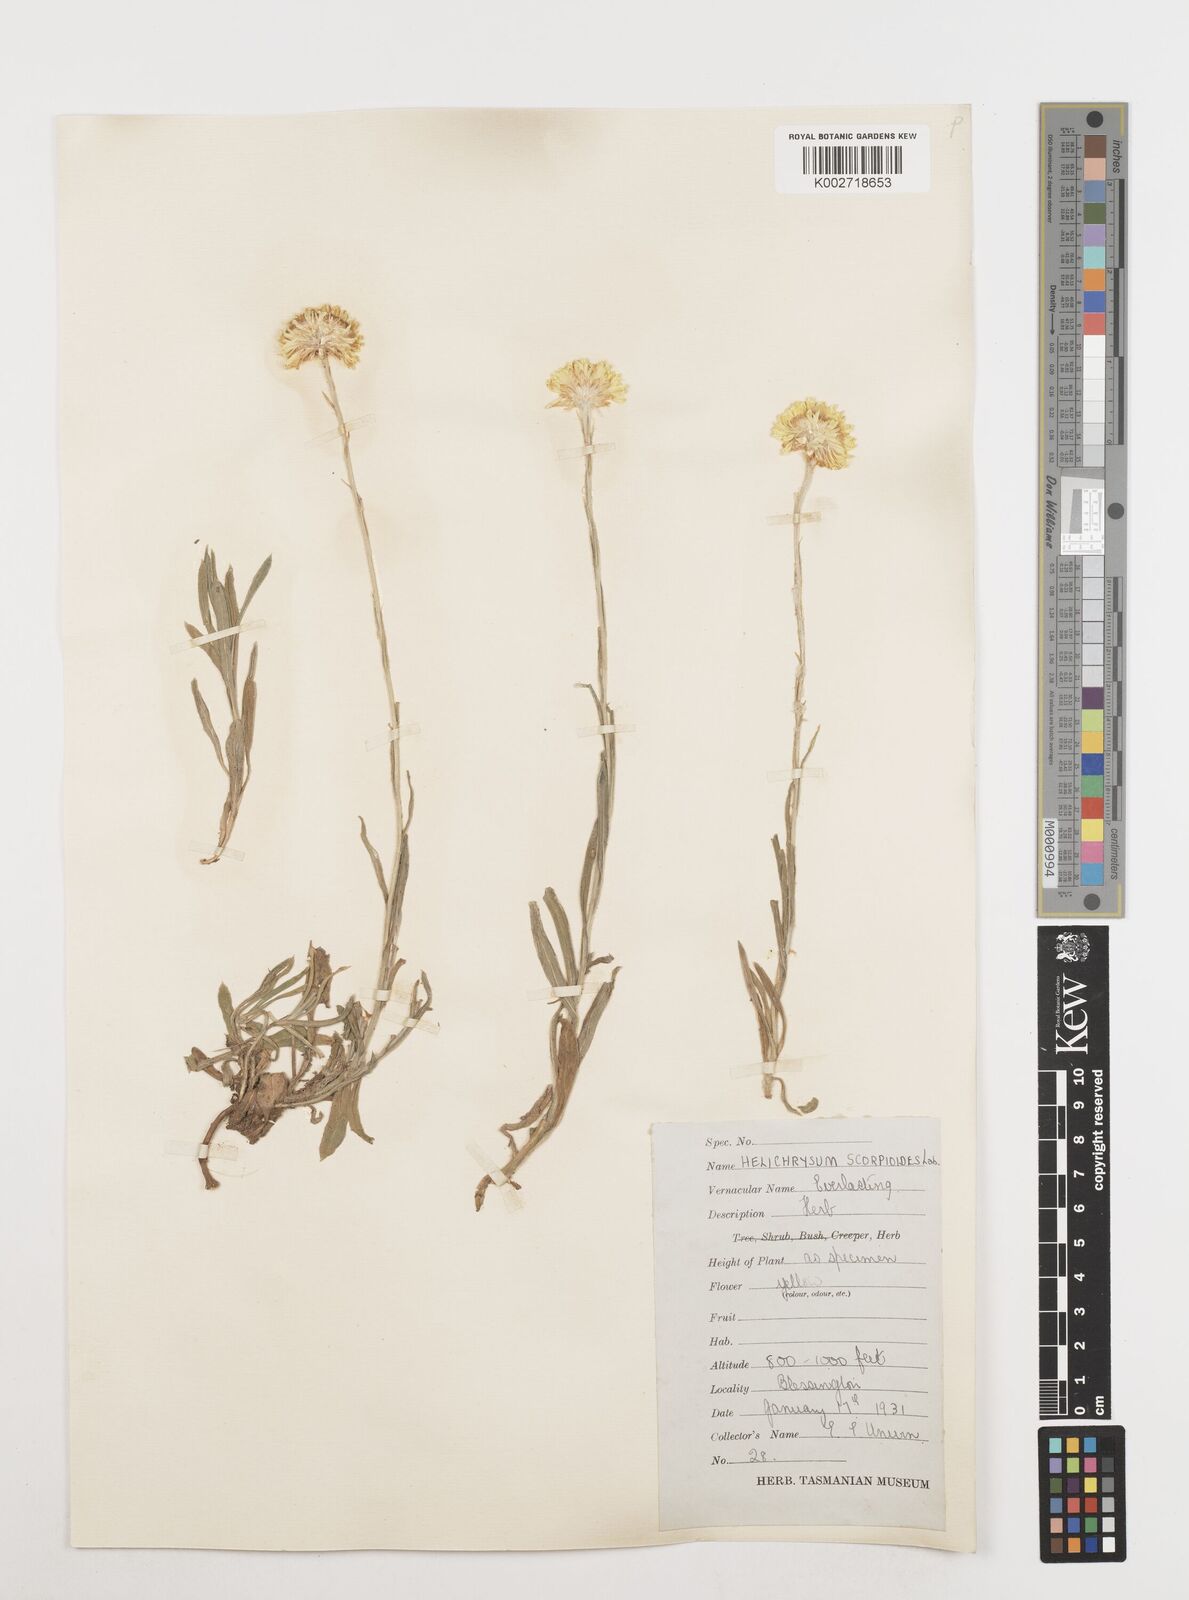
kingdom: Plantae
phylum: Tracheophyta
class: Magnoliopsida
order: Asterales
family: Asteraceae
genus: Coronidium
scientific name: Coronidium scorpioides
